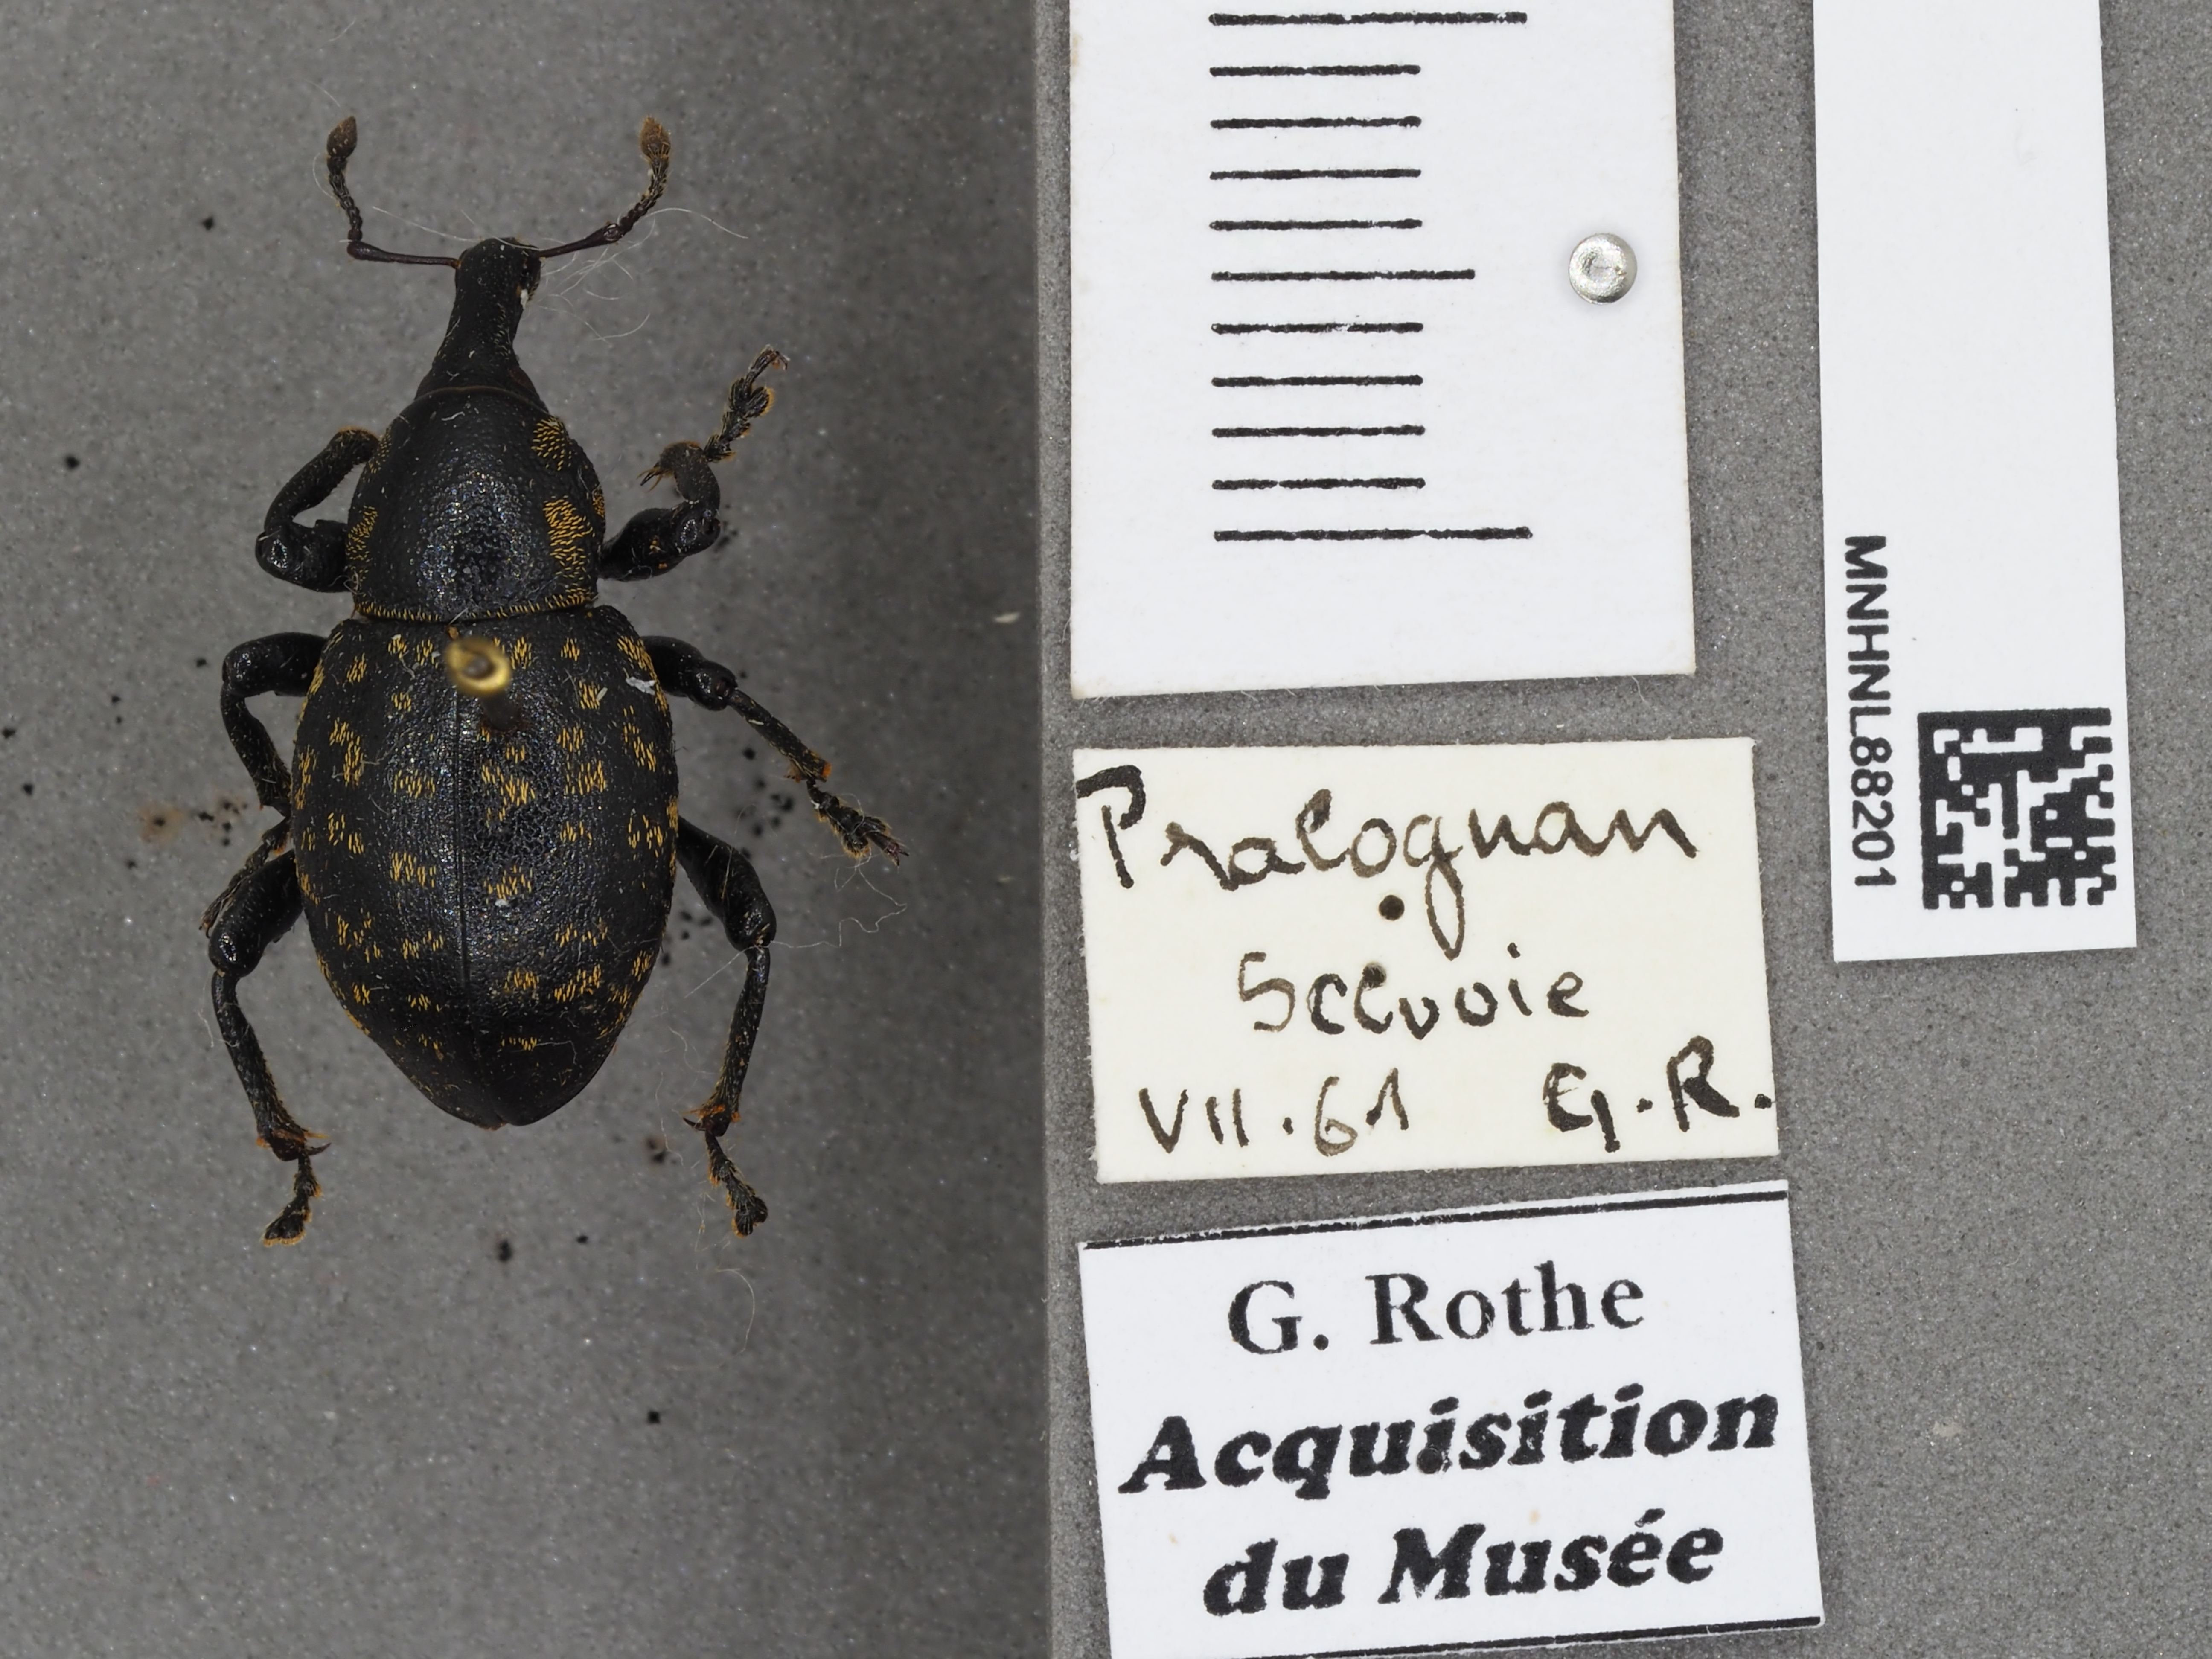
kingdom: Animalia
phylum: Arthropoda
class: Insecta
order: Coleoptera
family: Curculionidae
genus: Liparus
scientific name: Liparus germanus
